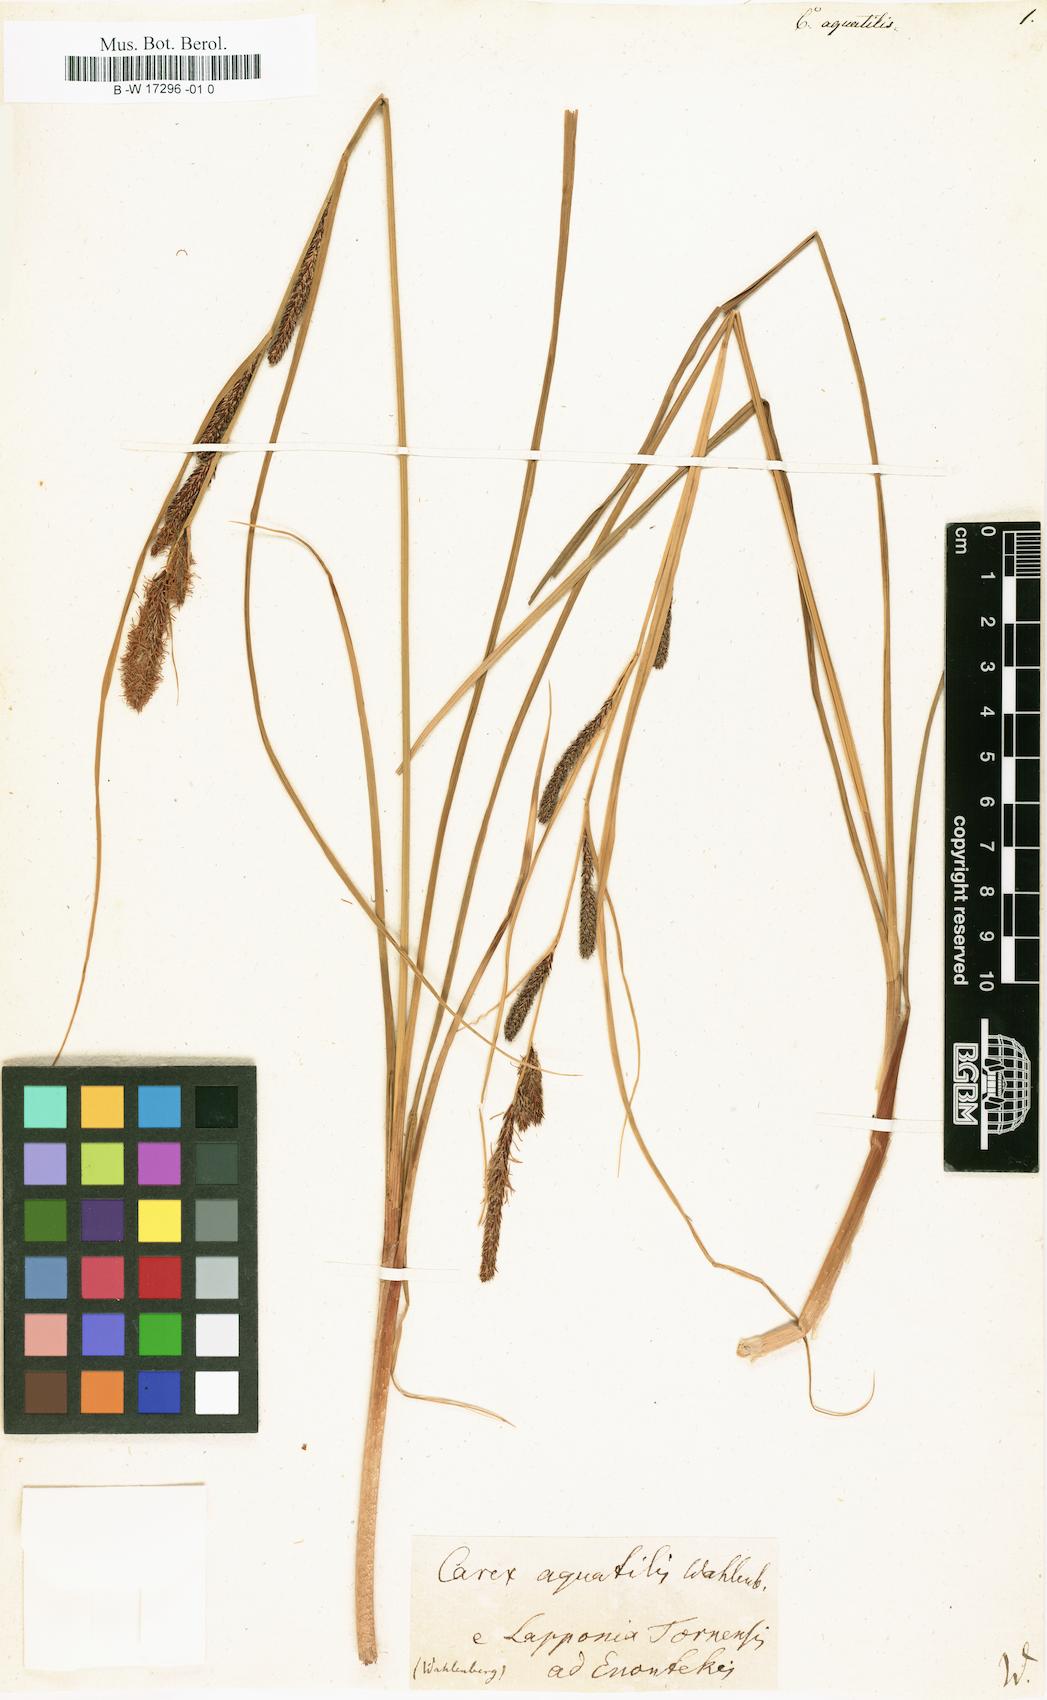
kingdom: Plantae
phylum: Tracheophyta
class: Liliopsida
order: Poales
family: Cyperaceae
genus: Carex
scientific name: Carex aquatilis
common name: Water sedge
